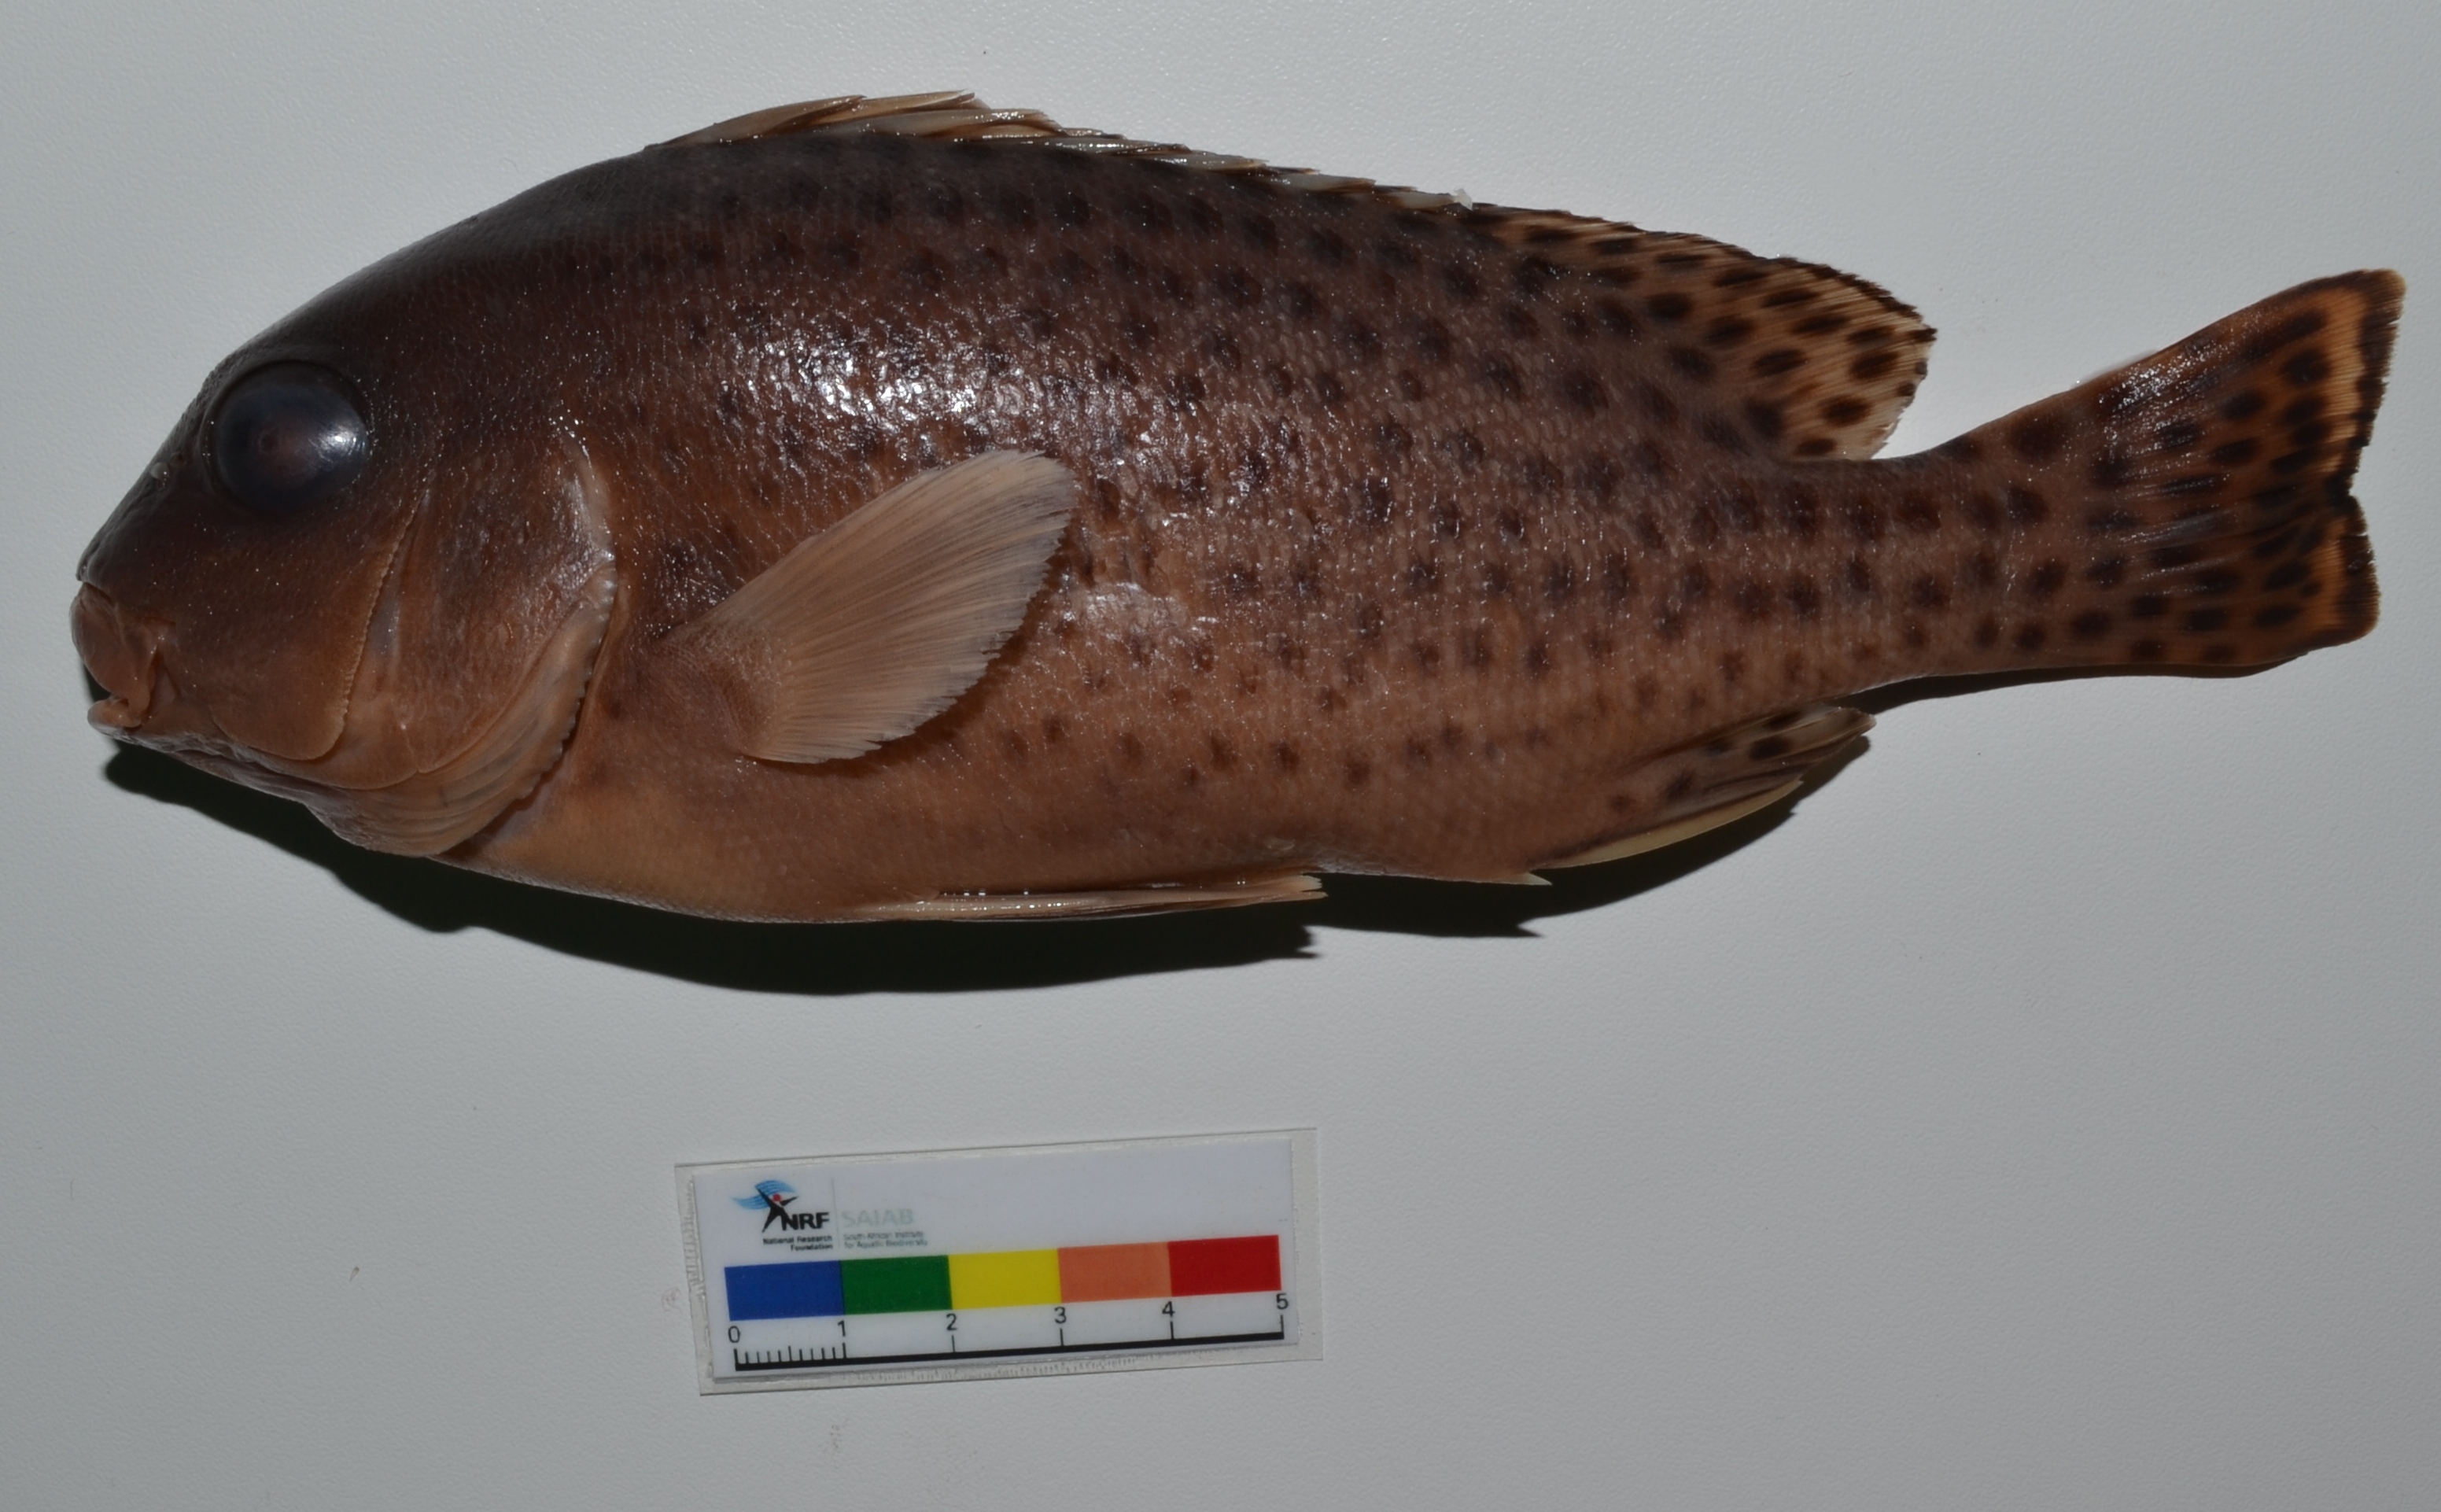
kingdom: Animalia
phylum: Chordata
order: Perciformes
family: Haemulidae
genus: Plectorhinchus
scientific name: Plectorhinchus gaterinus
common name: Blackspotted rubberlip
